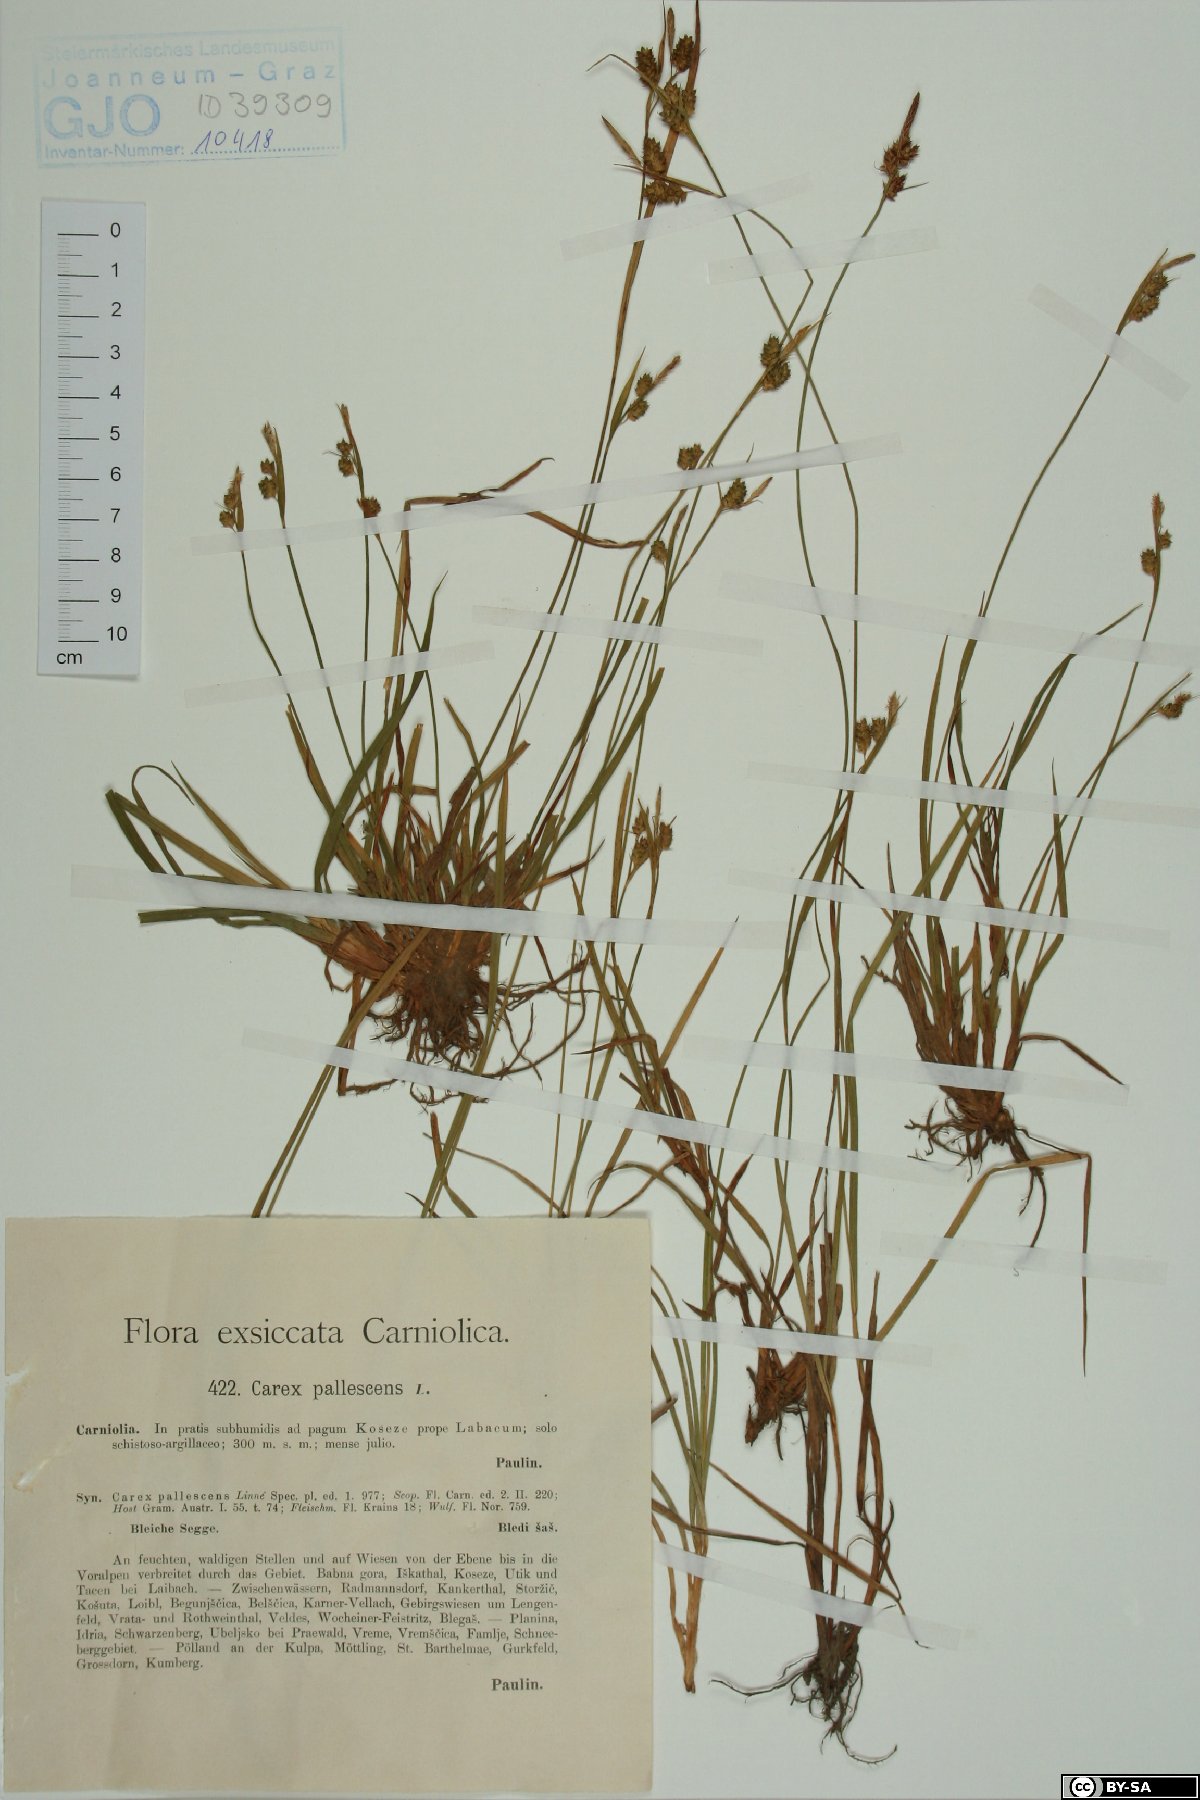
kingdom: Plantae
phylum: Tracheophyta
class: Liliopsida
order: Poales
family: Cyperaceae
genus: Carex
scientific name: Carex pallescens
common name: Pale sedge
